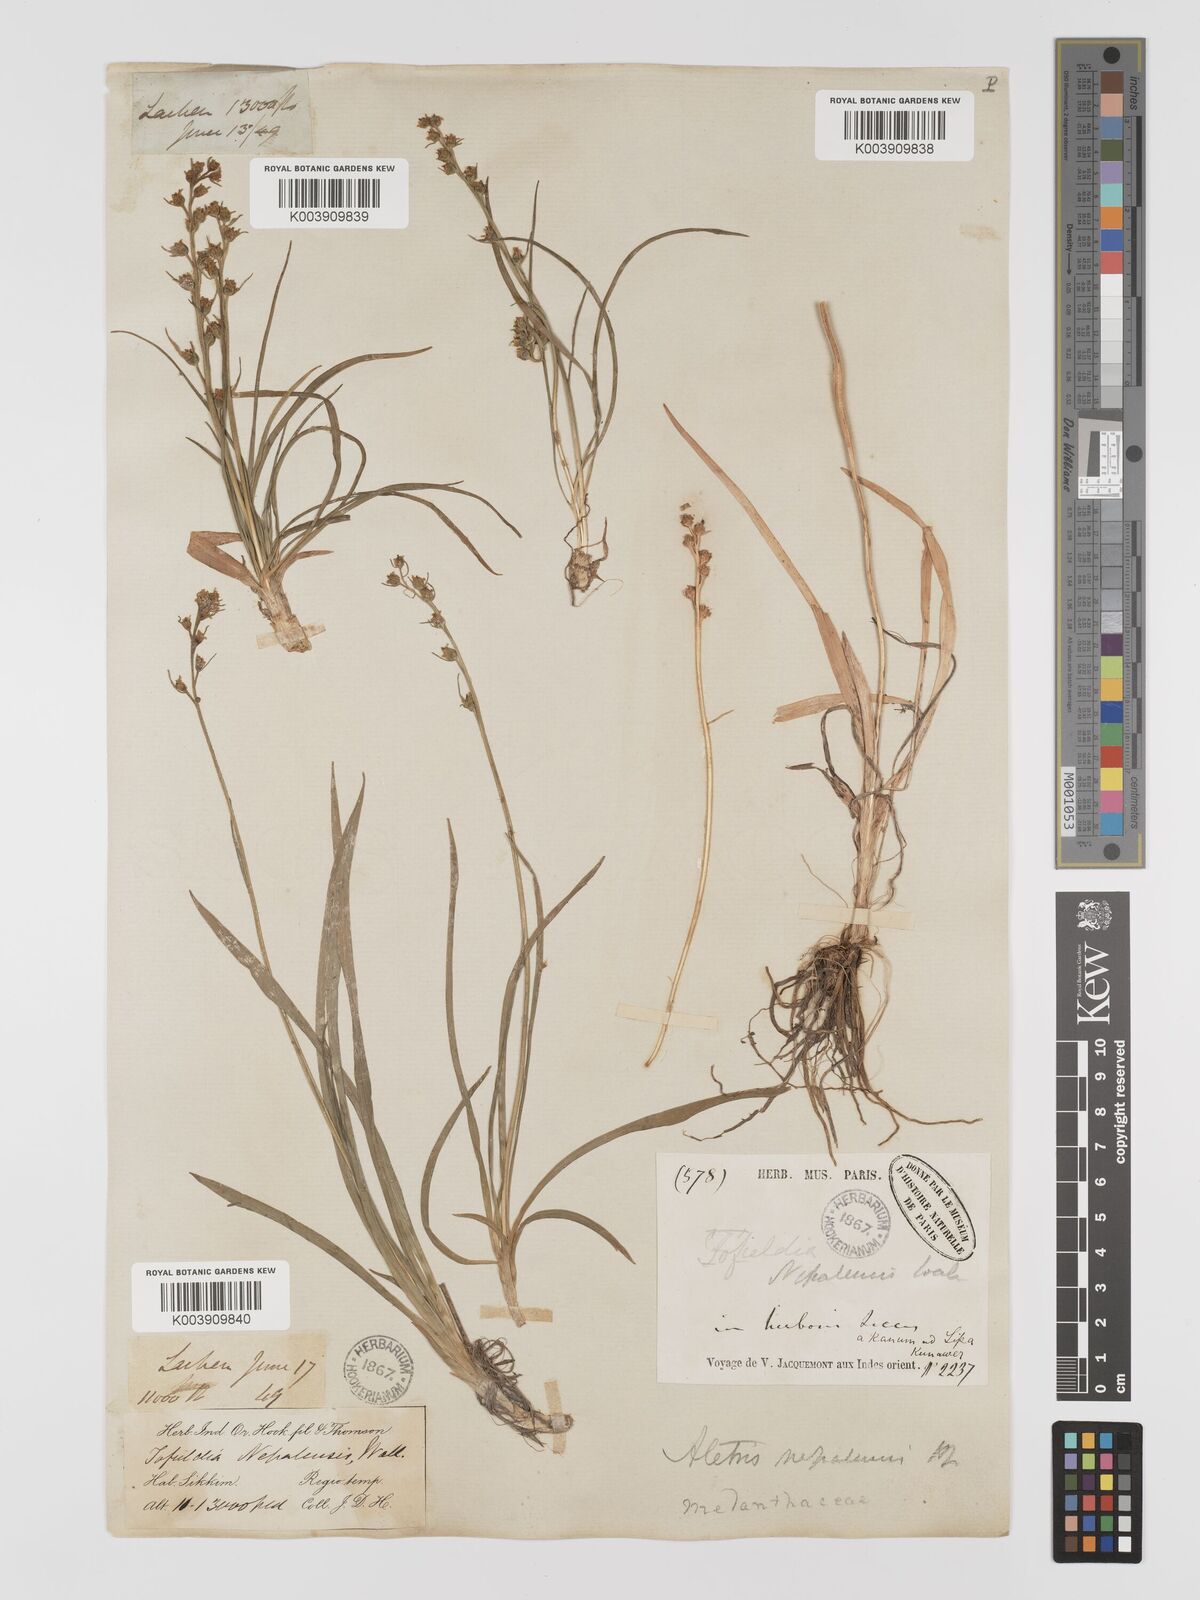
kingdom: Plantae
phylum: Tracheophyta
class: Liliopsida
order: Dioscoreales
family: Nartheciaceae
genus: Aletris
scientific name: Aletris pauciflora
